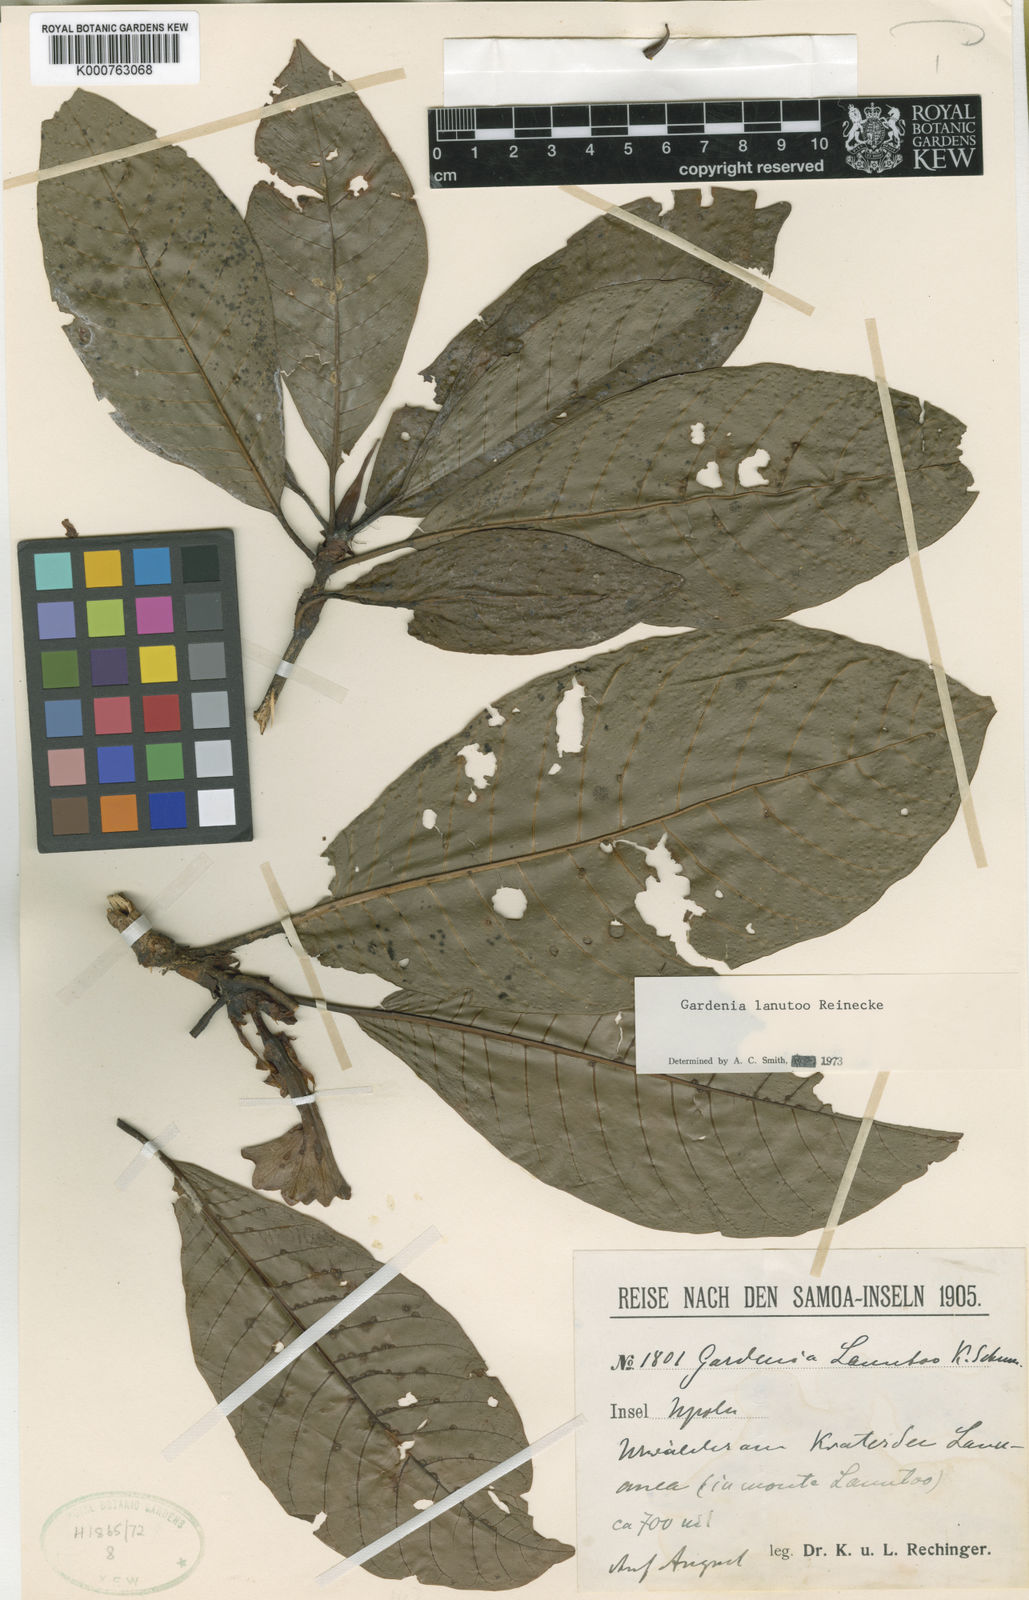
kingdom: Plantae
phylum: Tracheophyta
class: Magnoliopsida
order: Gentianales
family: Rubiaceae
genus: Gardenia
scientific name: Gardenia lanutoo
